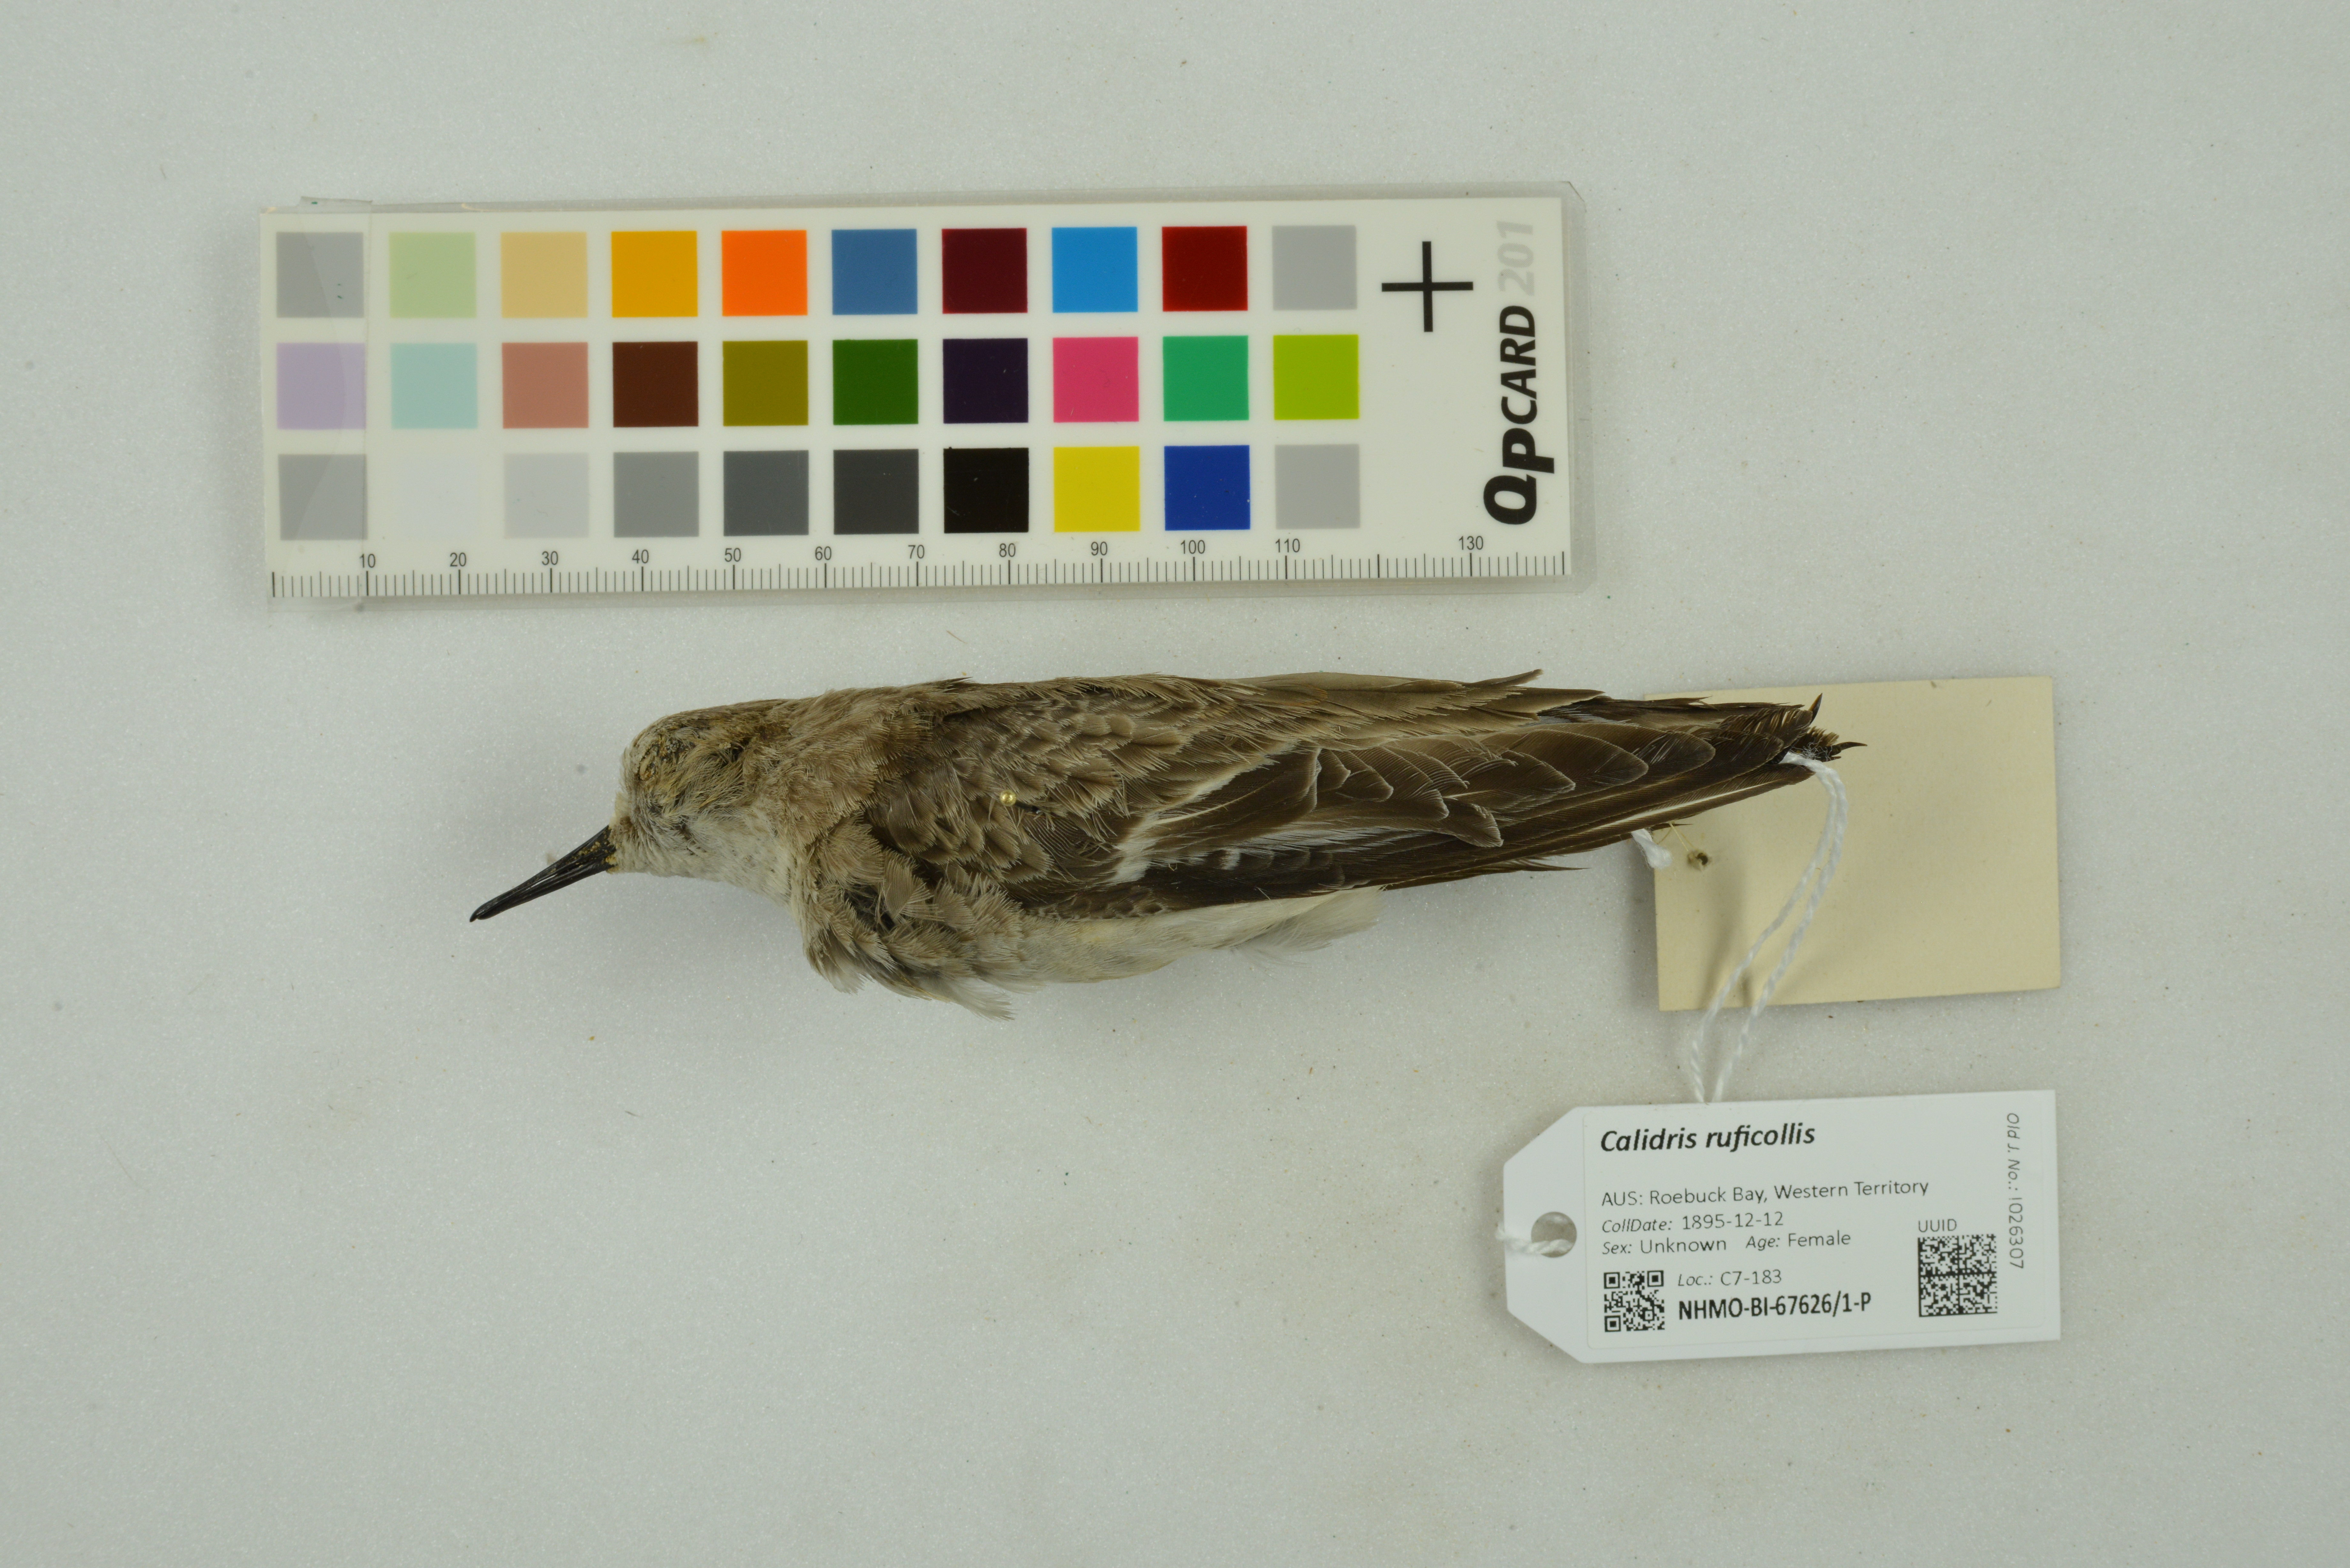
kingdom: Animalia
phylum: Chordata
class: Aves
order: Charadriiformes
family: Scolopacidae
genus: Calidris
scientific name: Calidris ruficollis
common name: Red-necked stint
